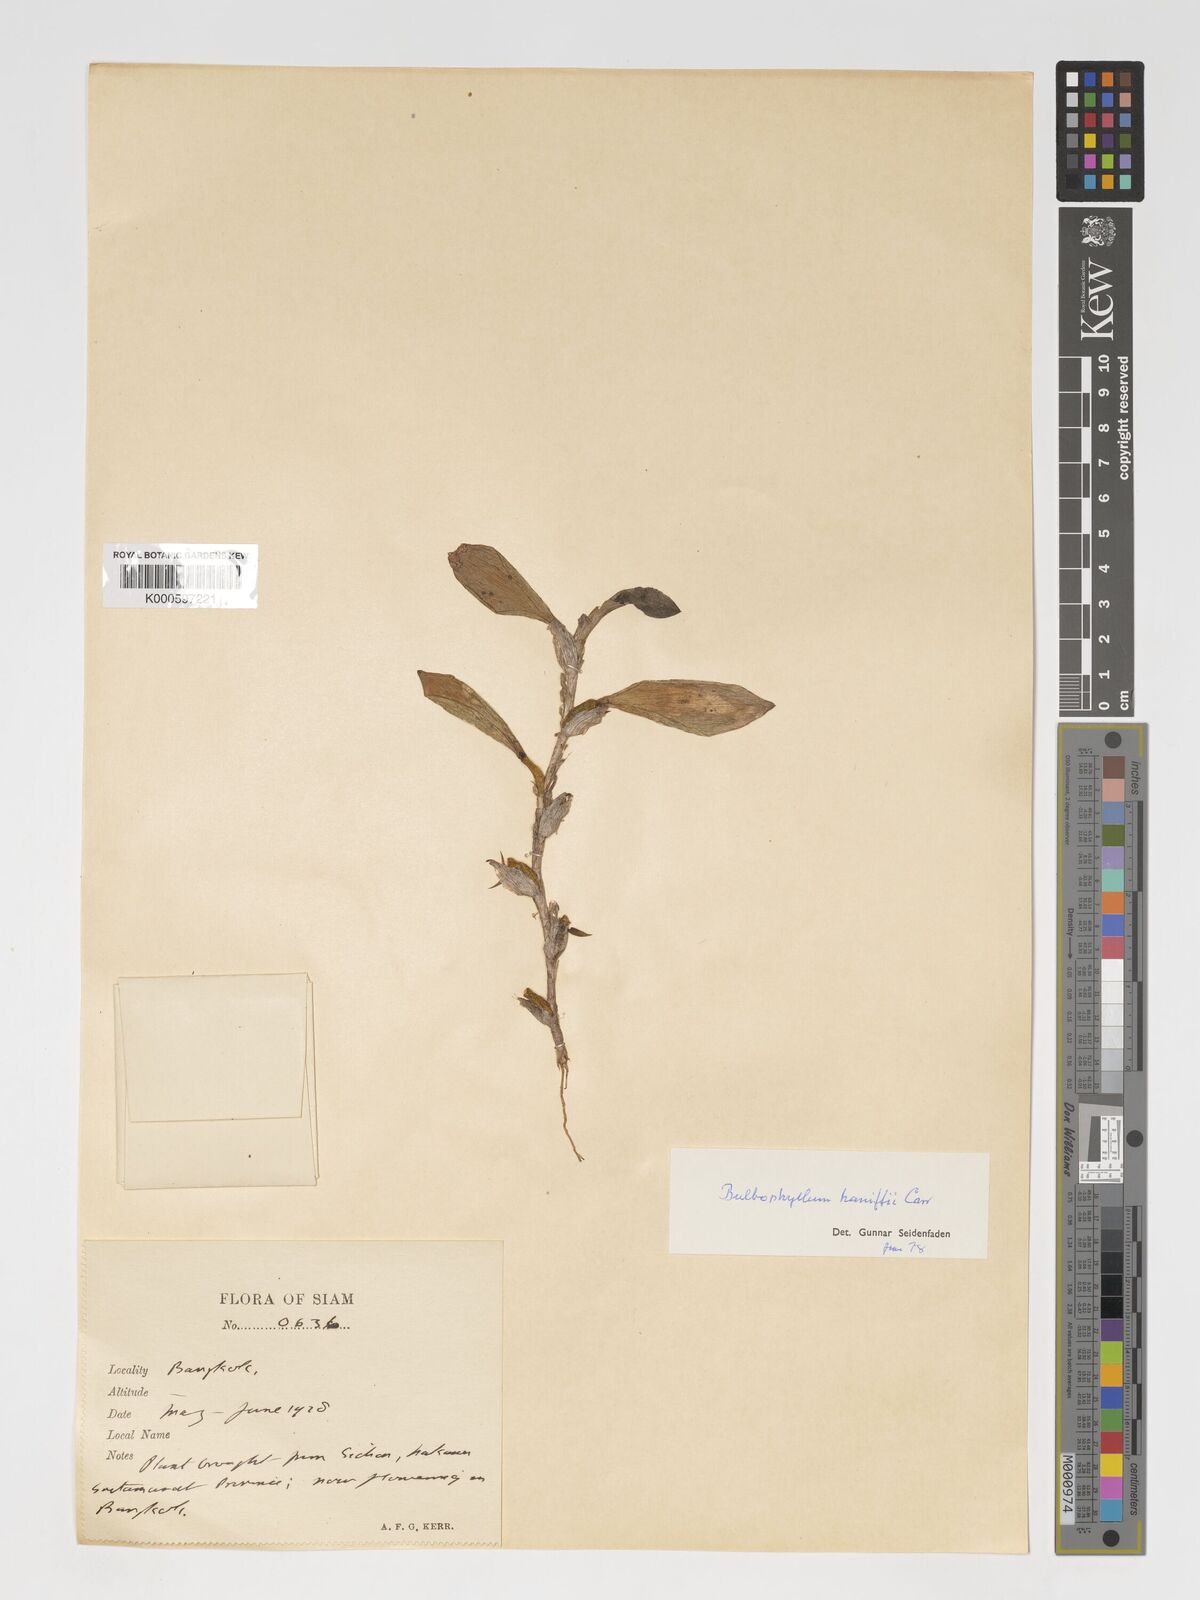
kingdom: Plantae
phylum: Tracheophyta
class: Liliopsida
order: Asparagales
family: Orchidaceae
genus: Bulbophyllum
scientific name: Bulbophyllum haniffii
